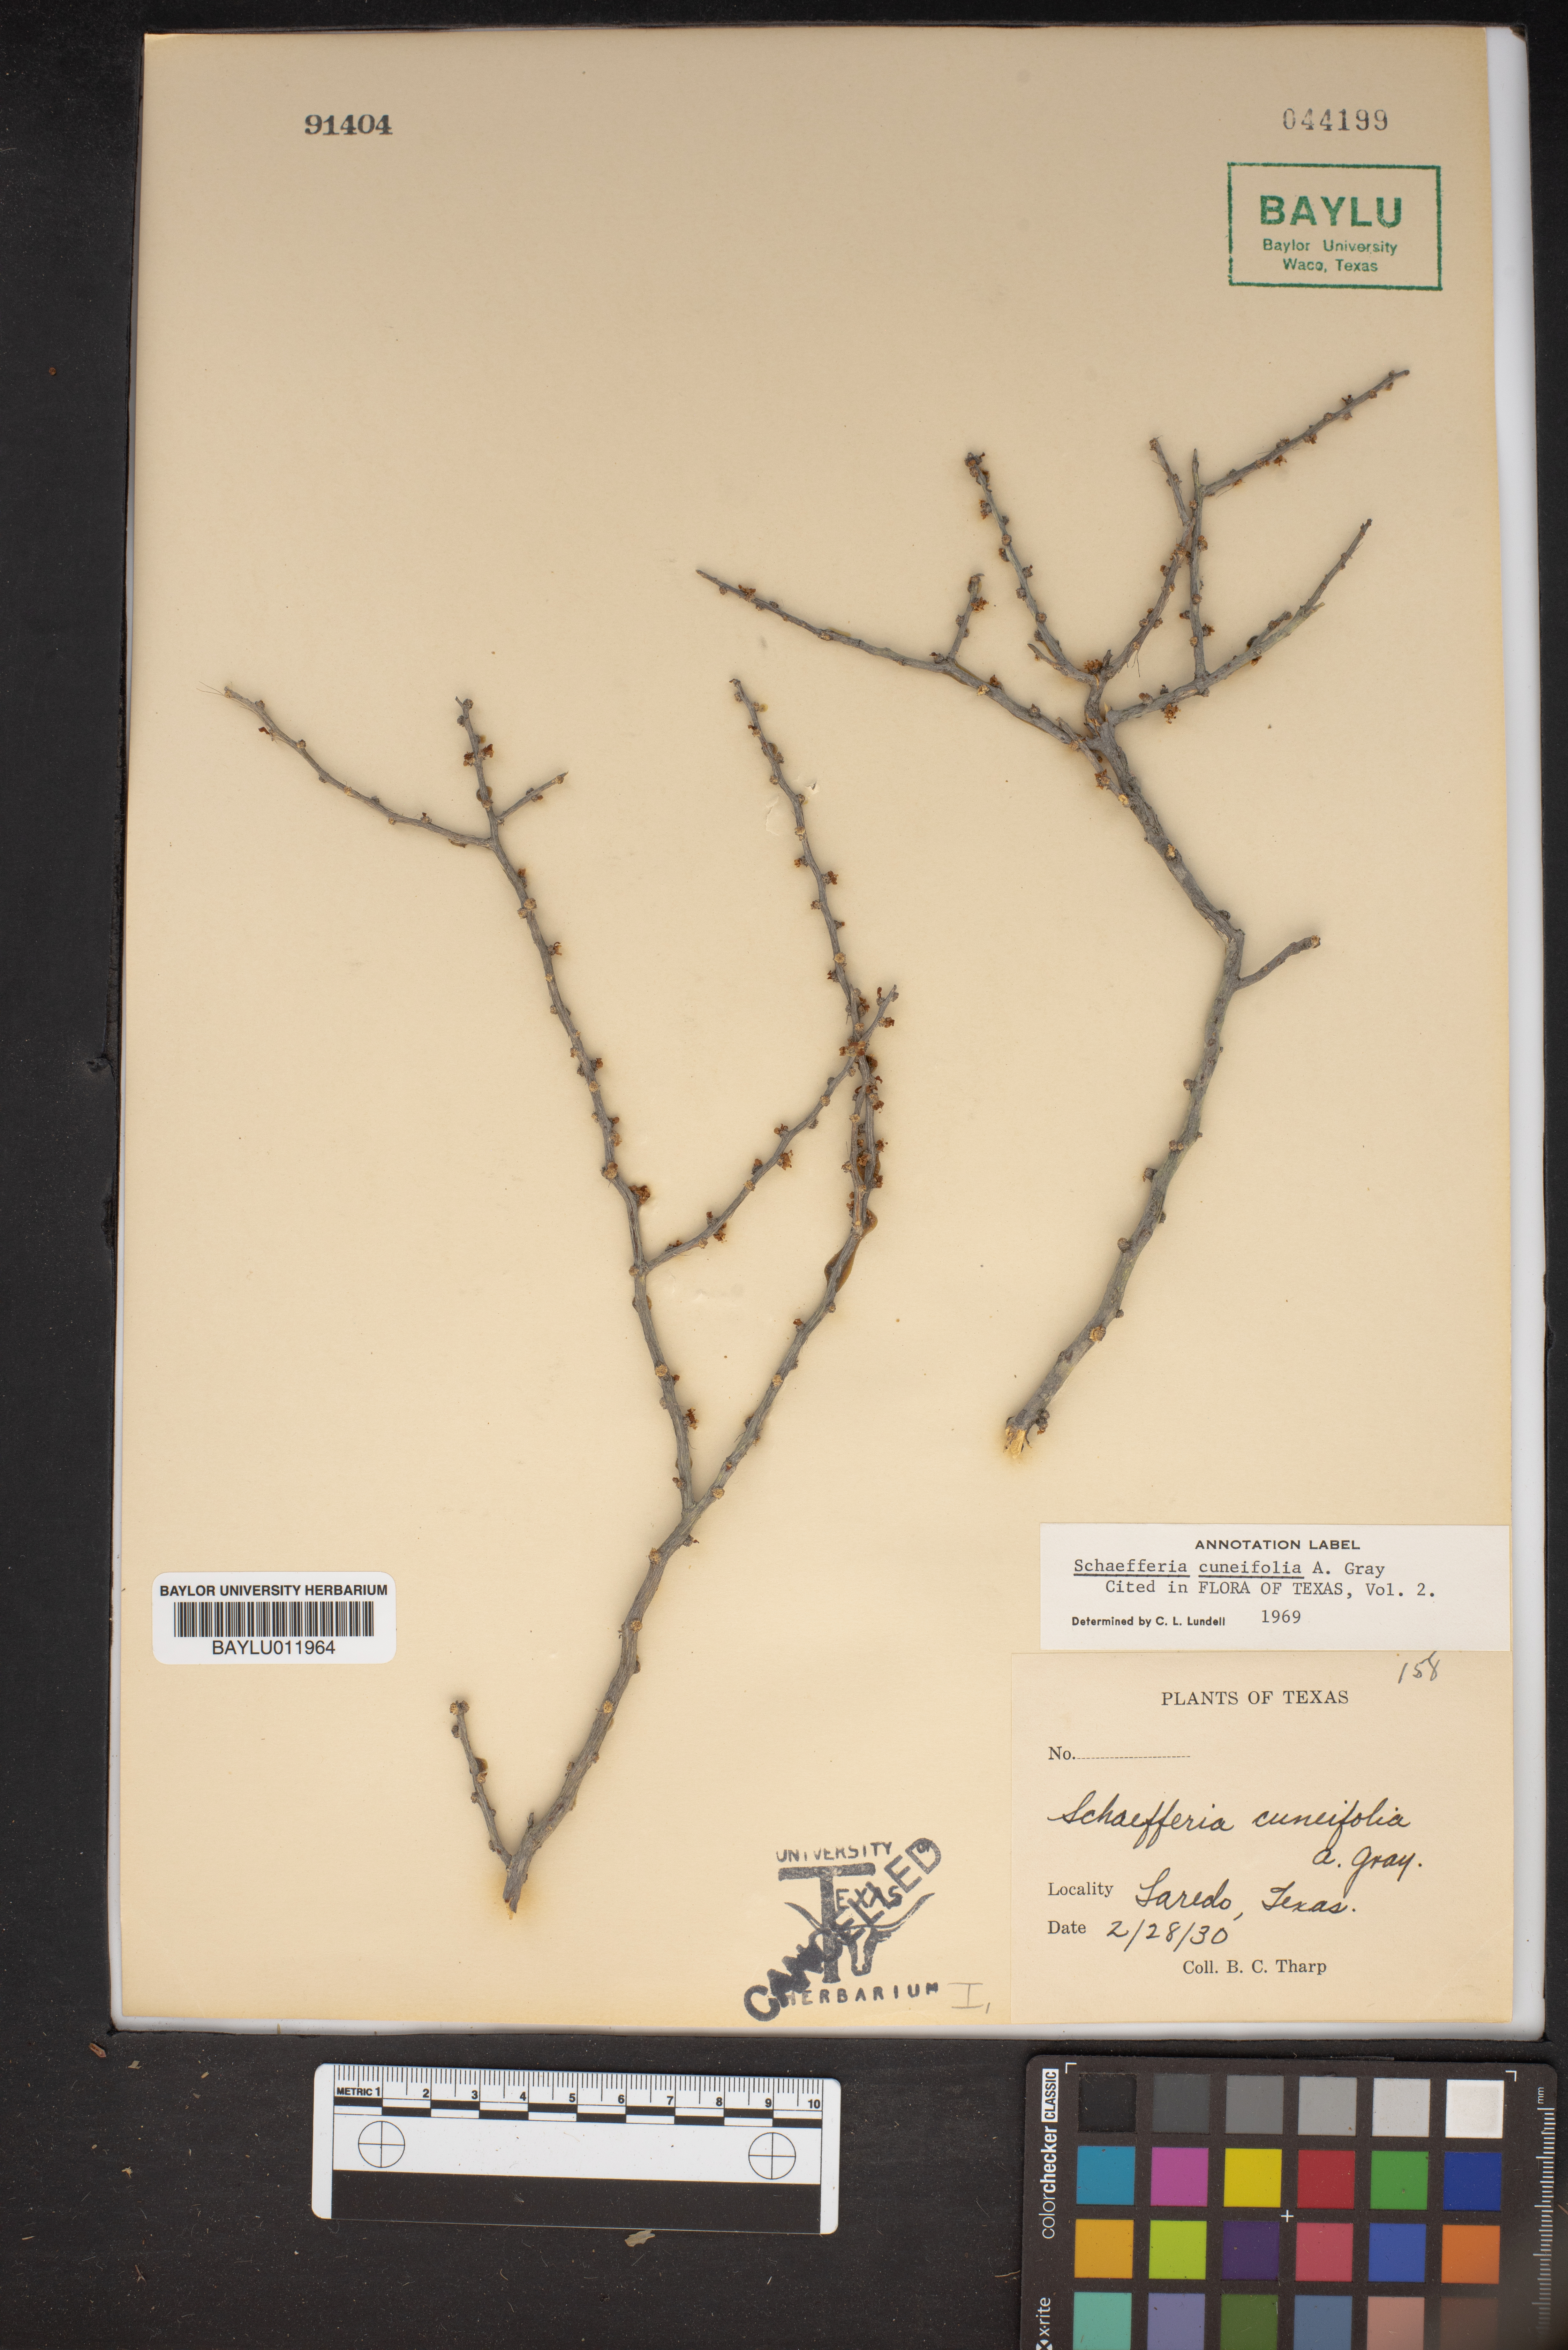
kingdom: Plantae
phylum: Tracheophyta
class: Magnoliopsida
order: Celastrales
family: Celastraceae
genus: Schaefferia
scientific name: Schaefferia cuneifolia
